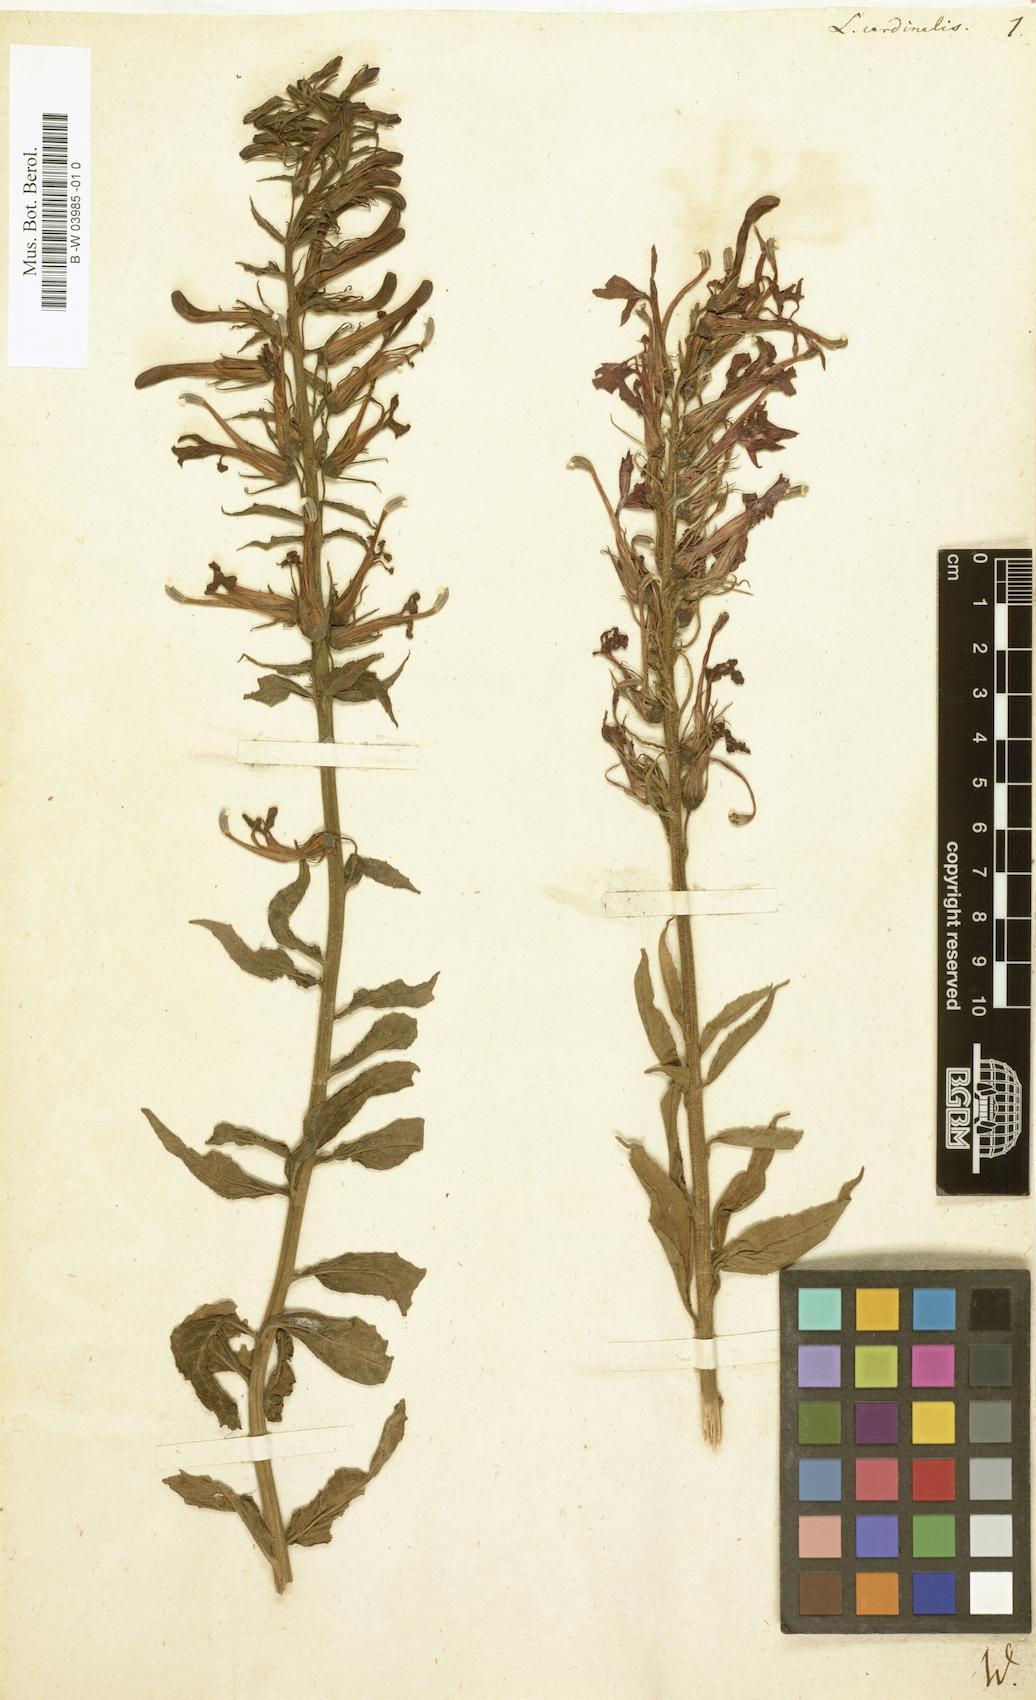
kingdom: Plantae
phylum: Tracheophyta
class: Magnoliopsida
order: Asterales
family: Campanulaceae
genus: Lobelia
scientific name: Lobelia cardinalis
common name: Cardinal flower
